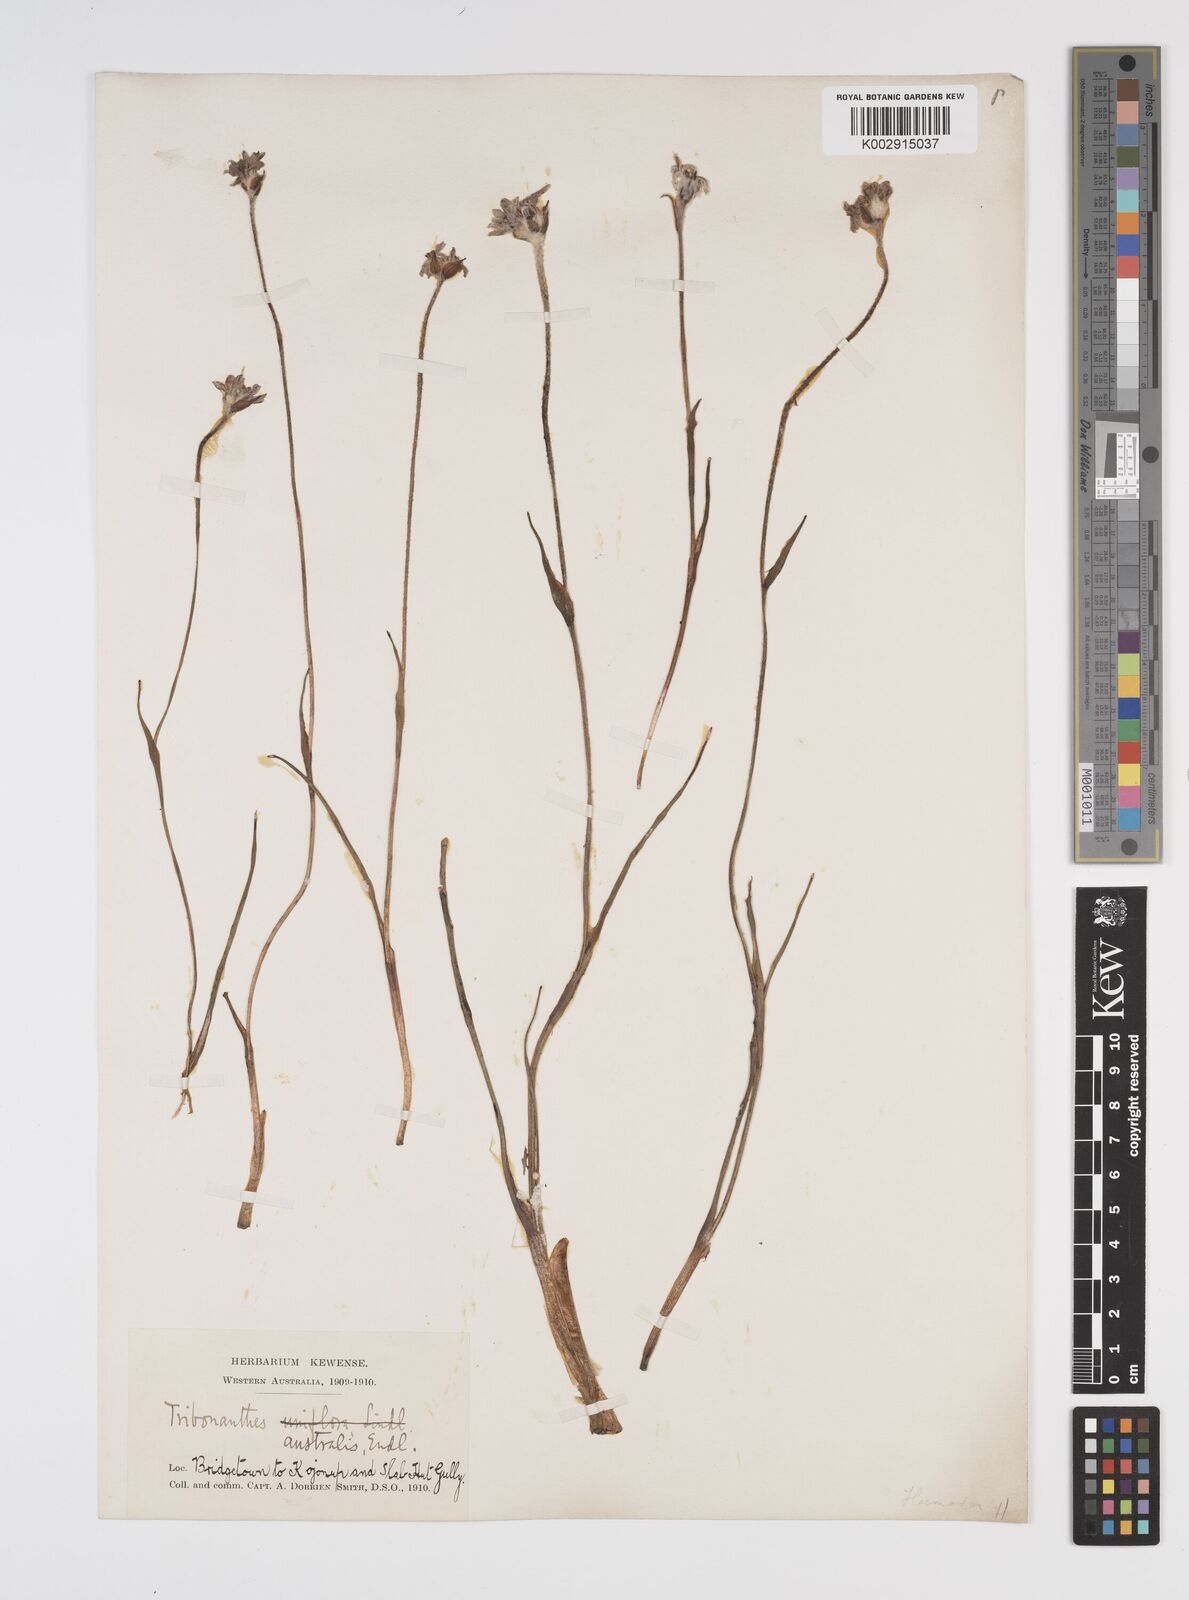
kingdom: Plantae
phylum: Tracheophyta
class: Liliopsida
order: Commelinales
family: Haemodoraceae
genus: Tribonanthes
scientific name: Tribonanthes australis
